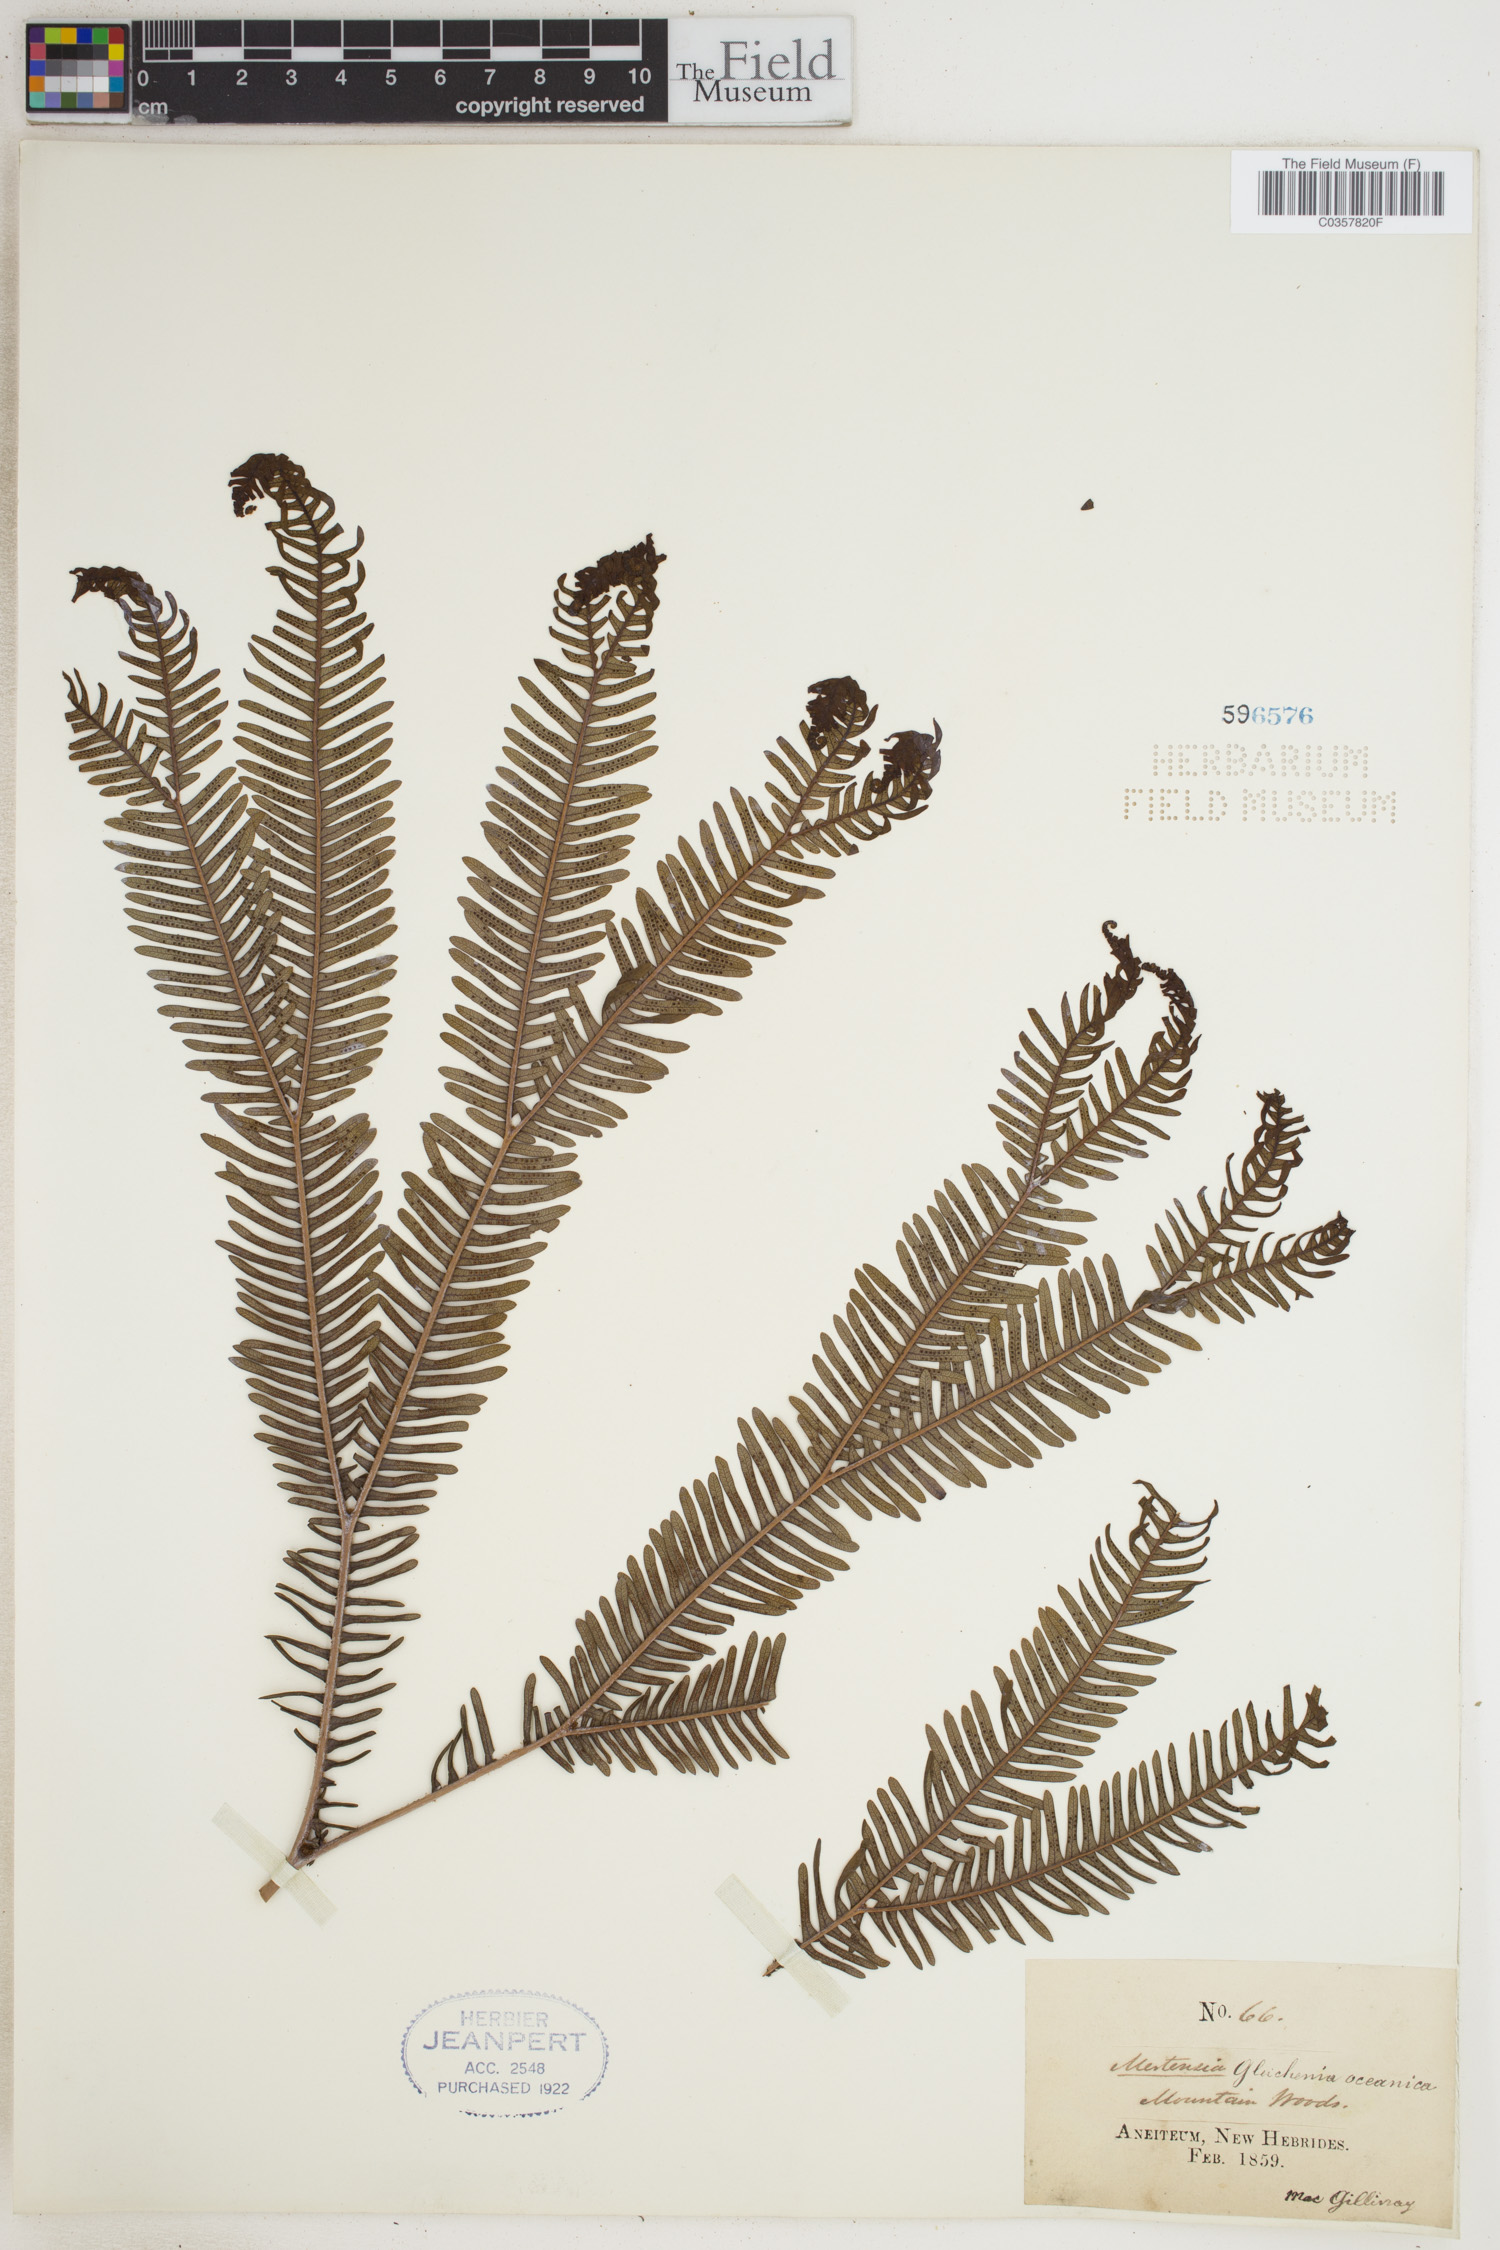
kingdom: Plantae
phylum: Tracheophyta
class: Polypodiopsida
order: Gleicheniales
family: Gleicheniaceae
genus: Sticherus
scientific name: Sticherus oceanicus
